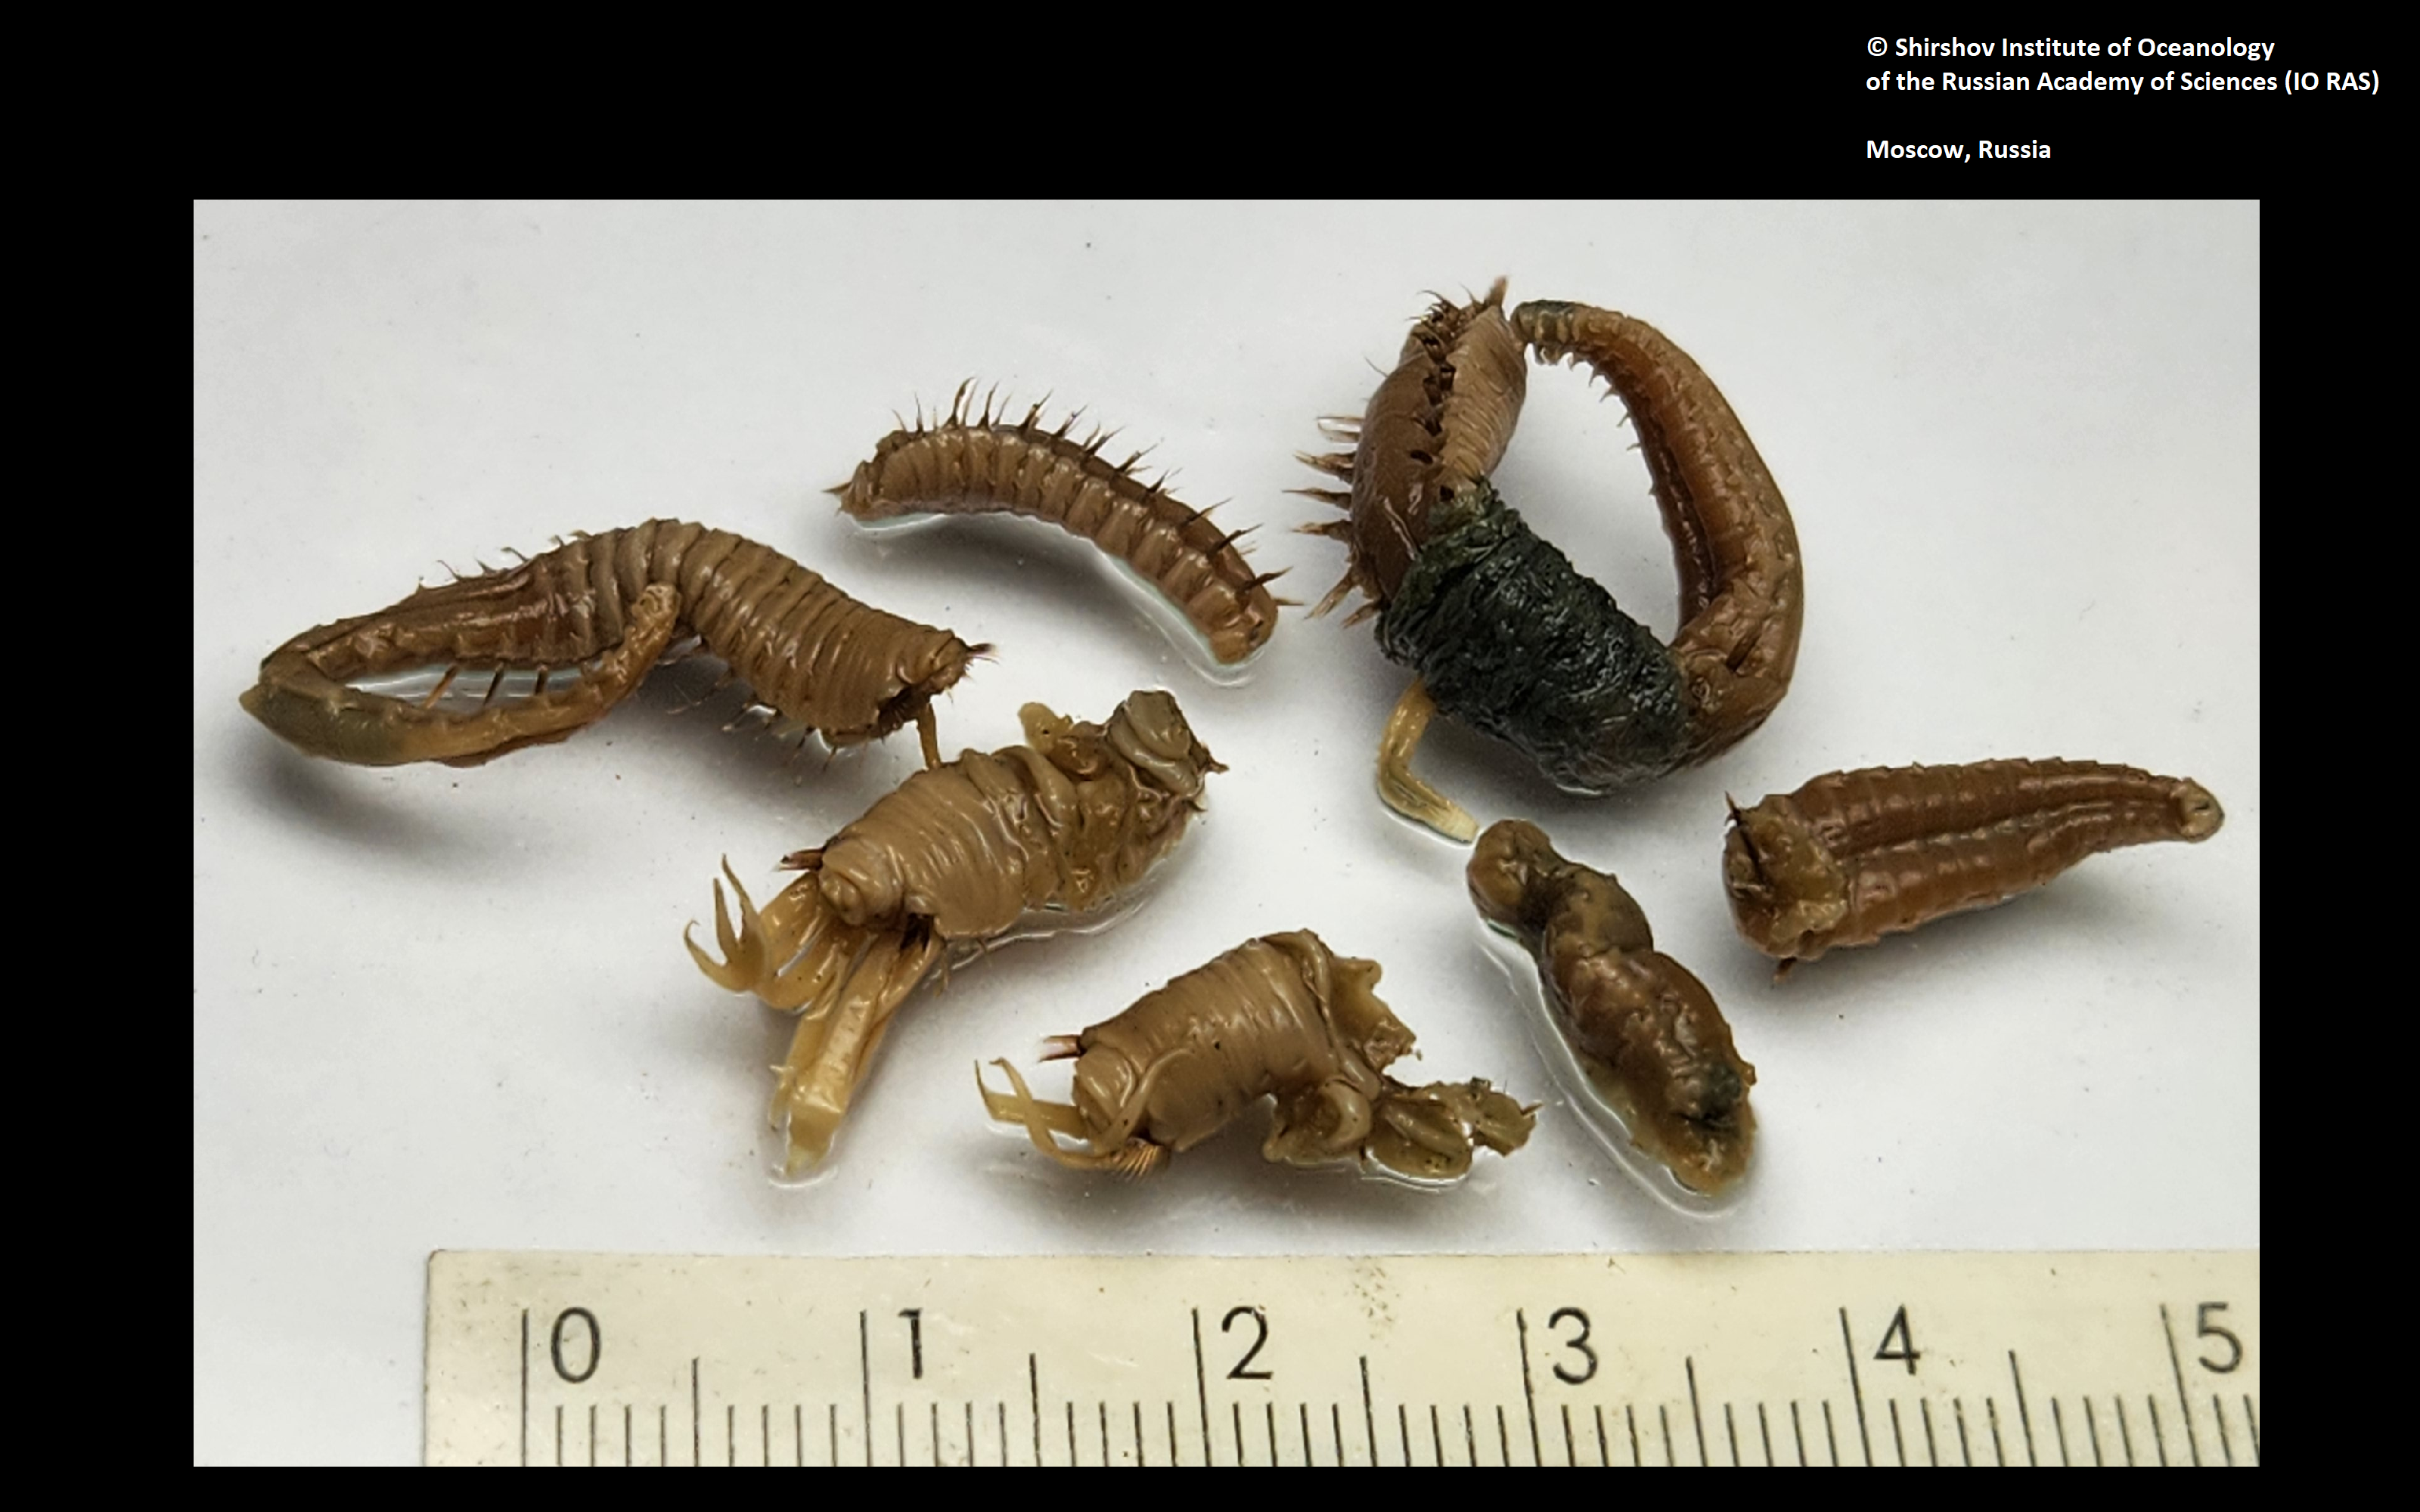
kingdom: Animalia
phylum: Annelida
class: Polychaeta
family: Ampharetidae
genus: Amphicteis
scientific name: Amphicteis nikiti
